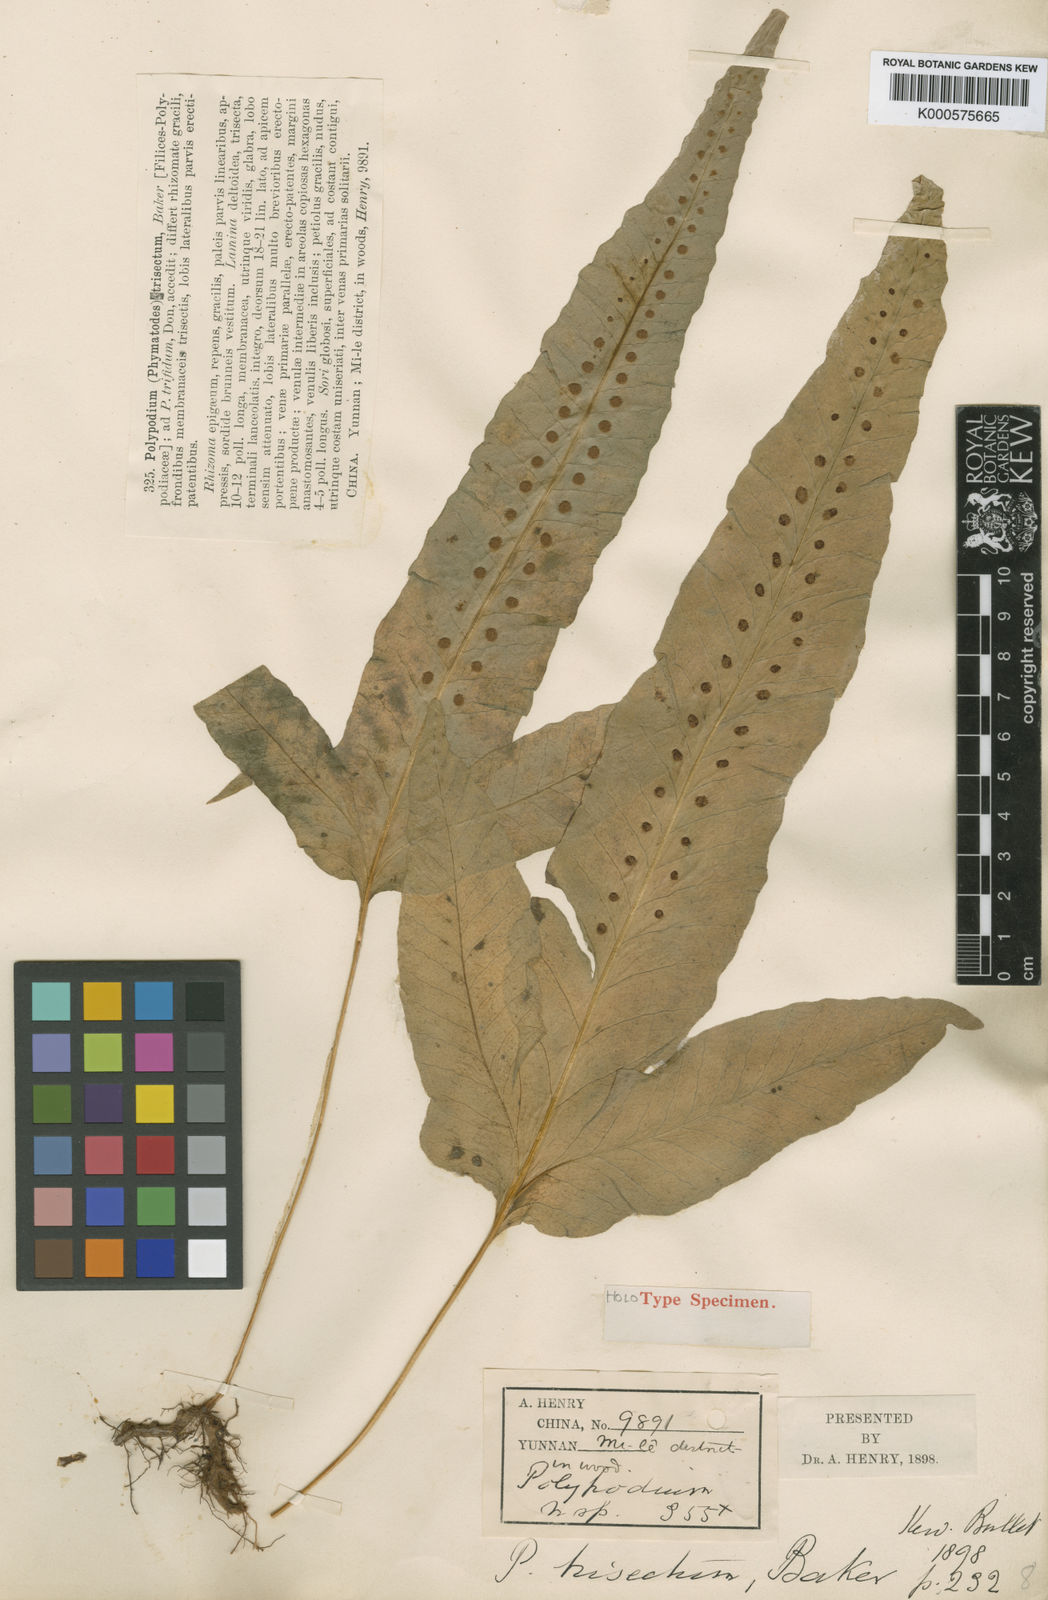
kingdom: Plantae
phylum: Tracheophyta
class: Polypodiopsida
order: Polypodiales
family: Polypodiaceae
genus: Selliguea
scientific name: Selliguea trisecta
